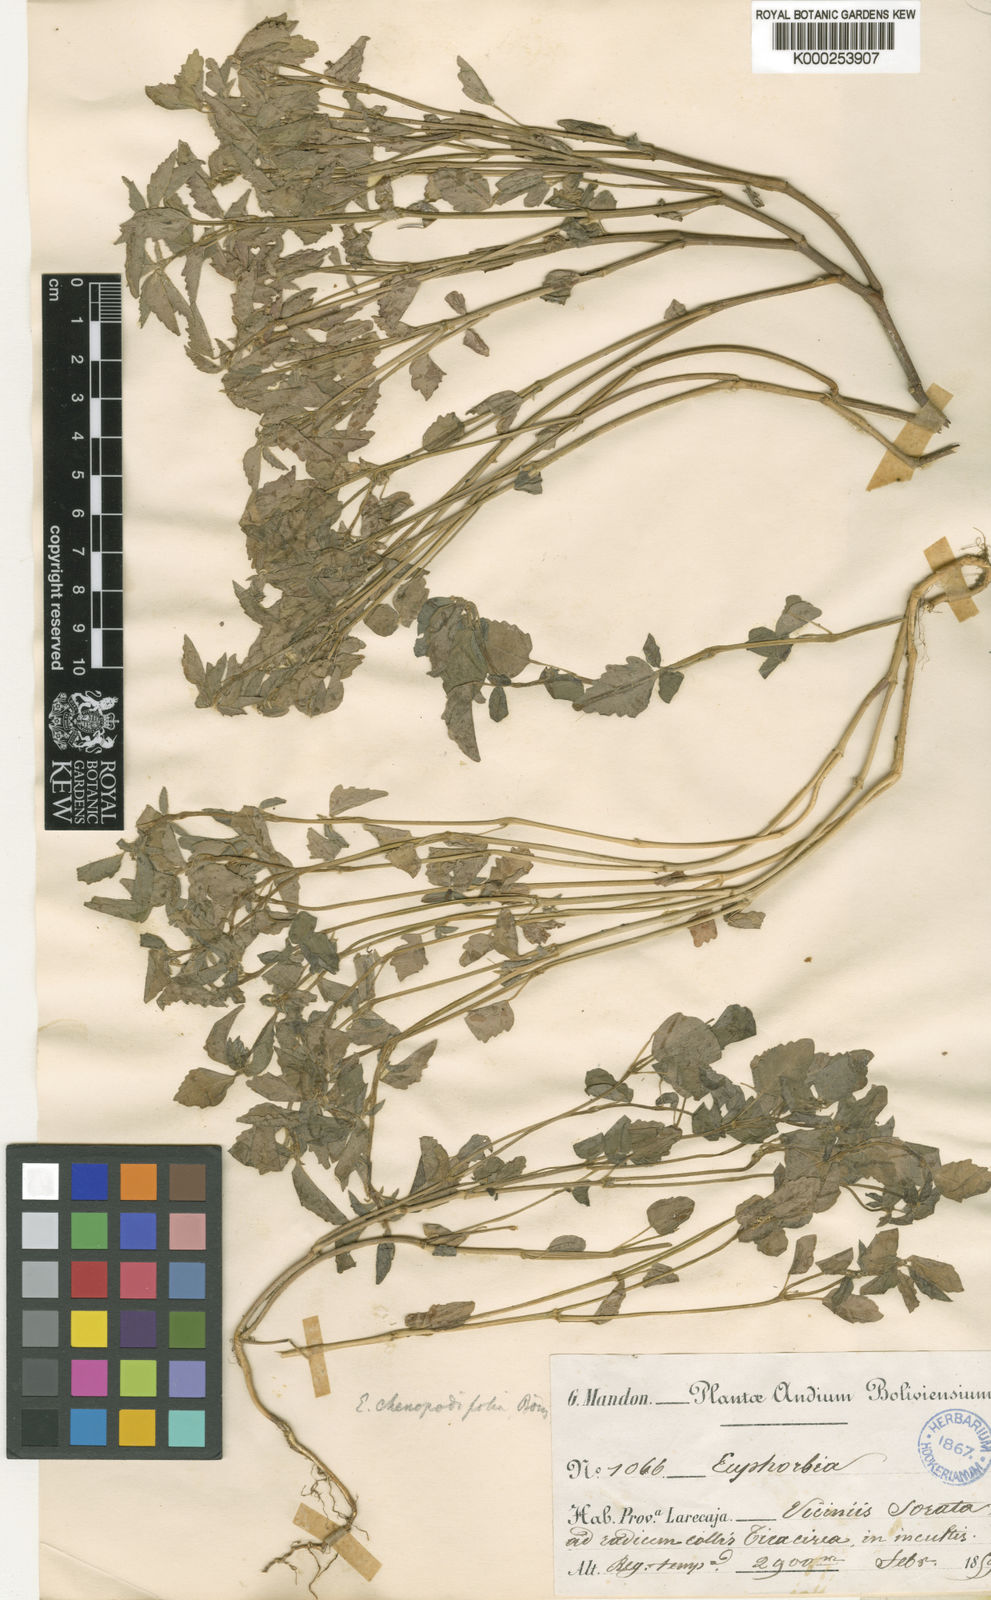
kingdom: Plantae
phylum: Tracheophyta
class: Magnoliopsida
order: Malpighiales
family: Euphorbiaceae
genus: Euphorbia
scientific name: Euphorbia chenopodiifolia
